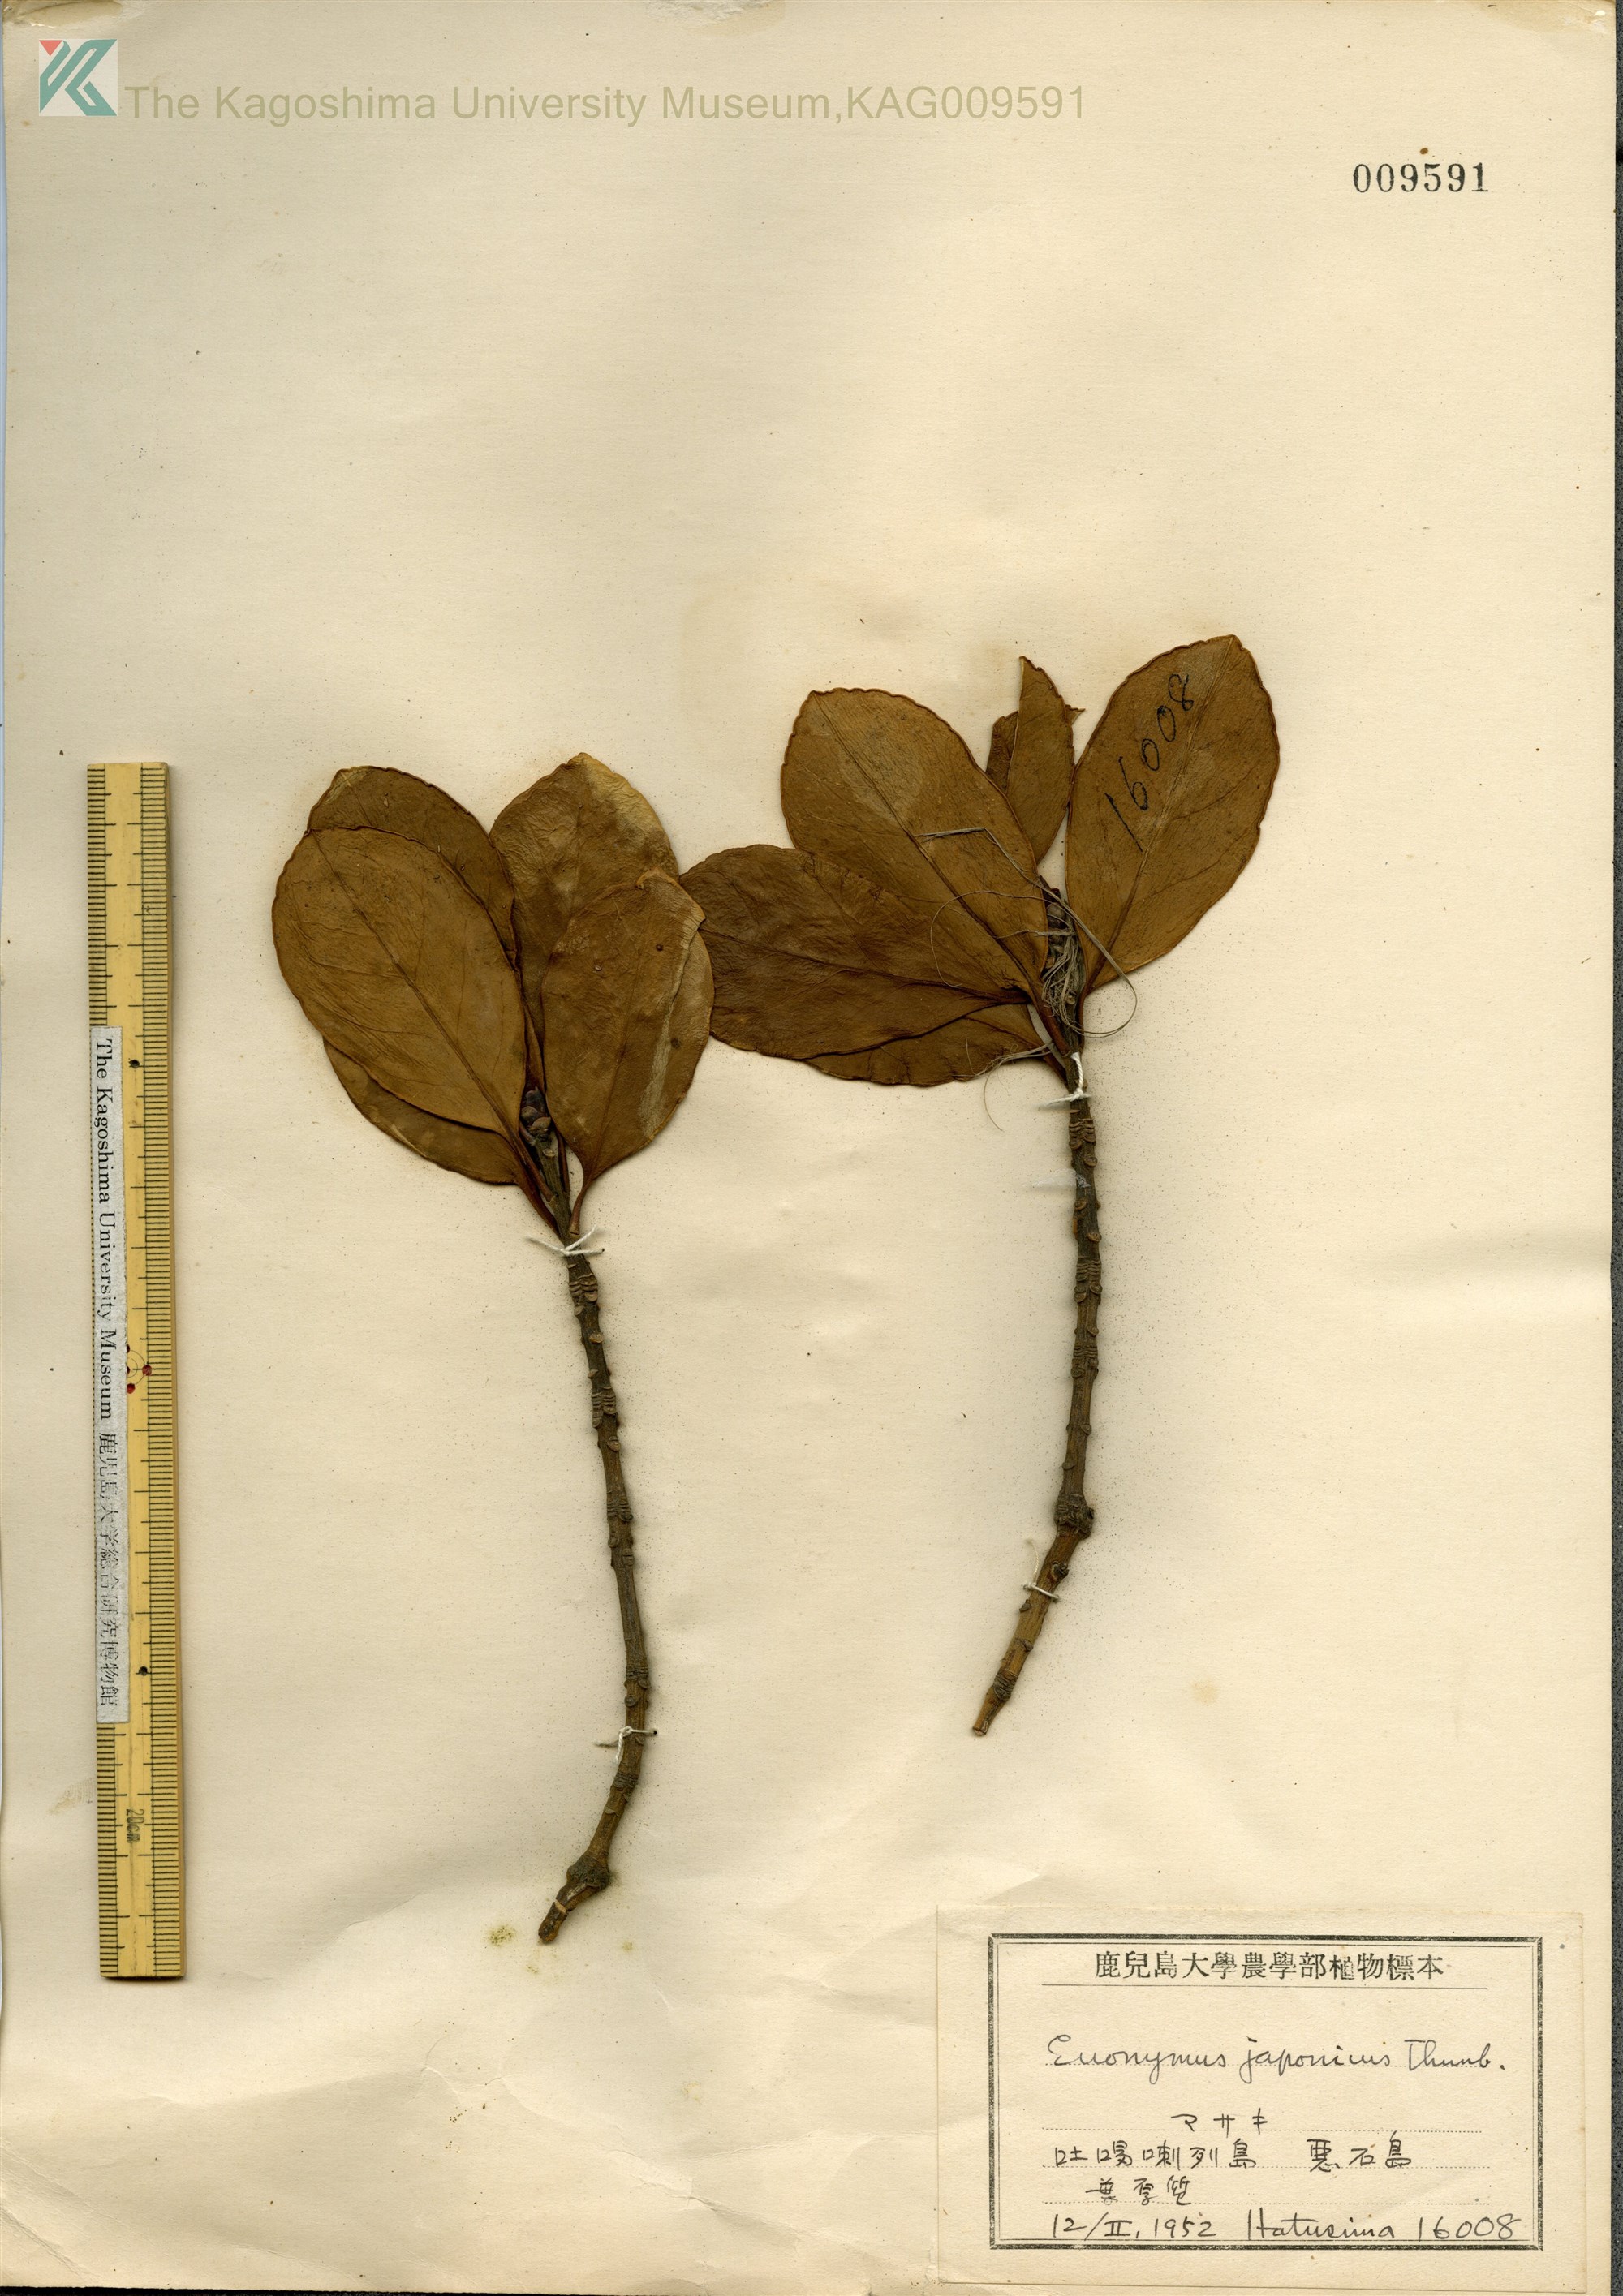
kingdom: Plantae
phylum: Tracheophyta
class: Magnoliopsida
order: Celastrales
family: Celastraceae
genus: Euonymus
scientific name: Euonymus japonicus
